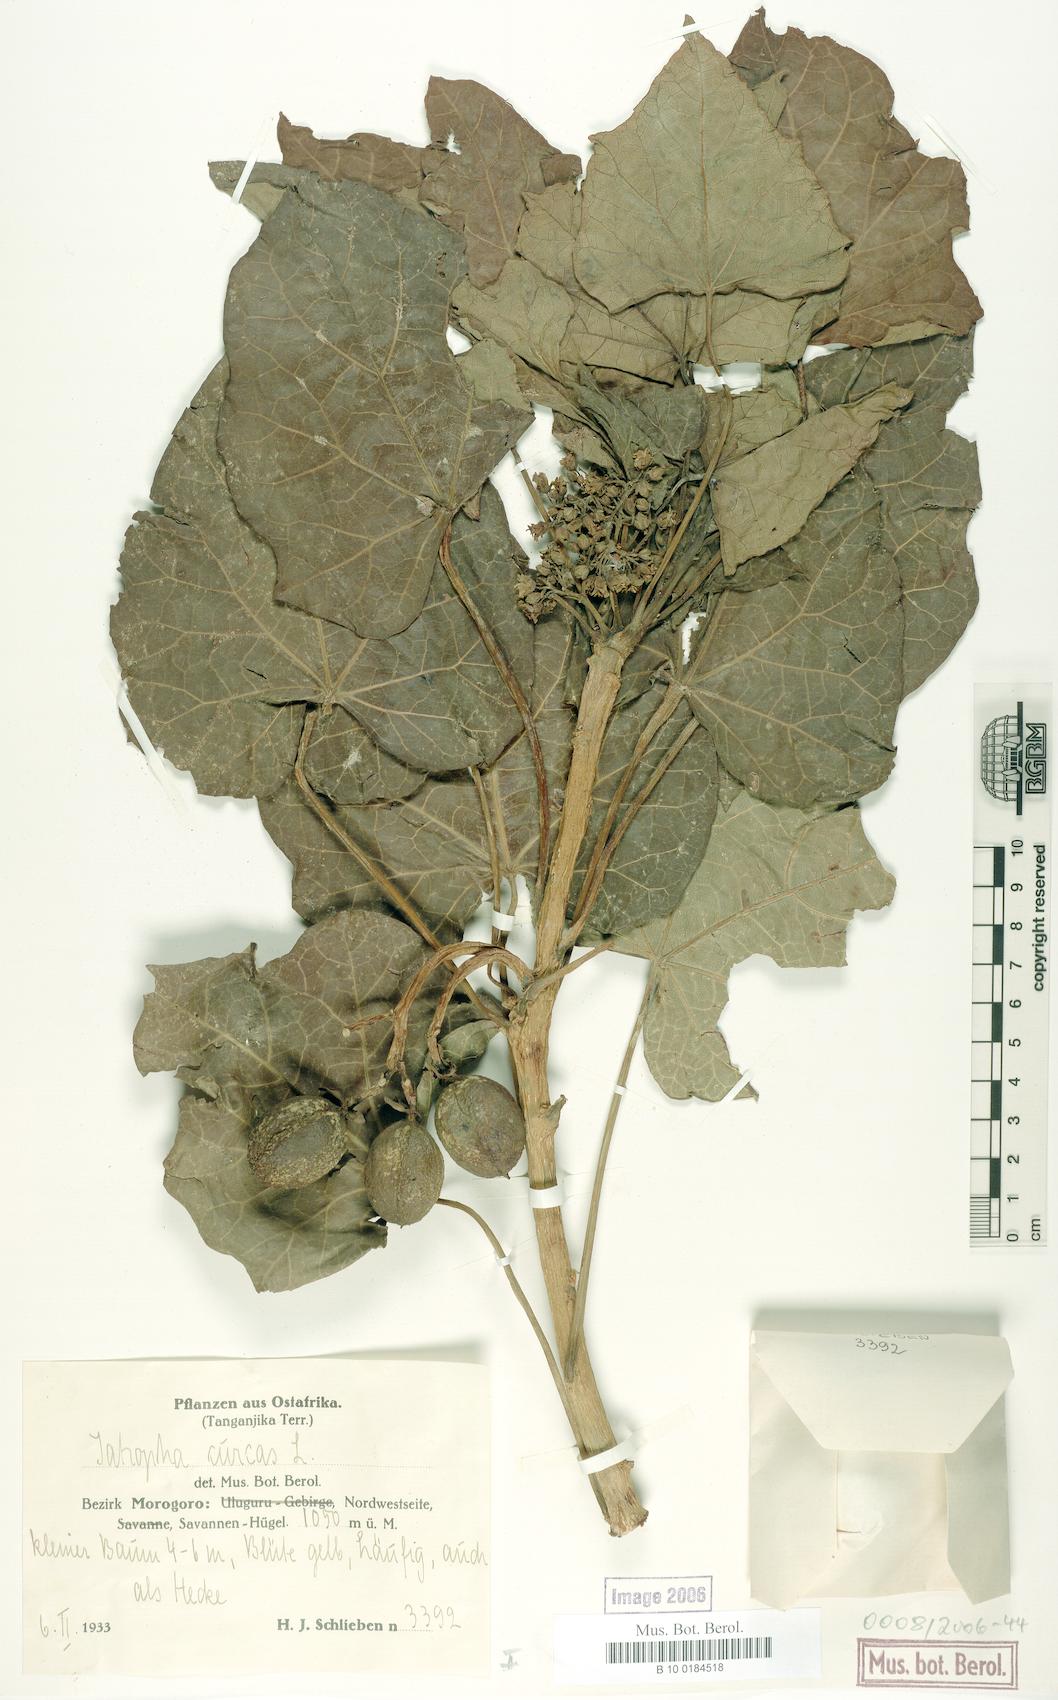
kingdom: Plantae
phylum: Tracheophyta
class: Magnoliopsida
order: Malpighiales
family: Euphorbiaceae
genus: Jatropha
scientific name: Jatropha curcas
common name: Barbados nut
